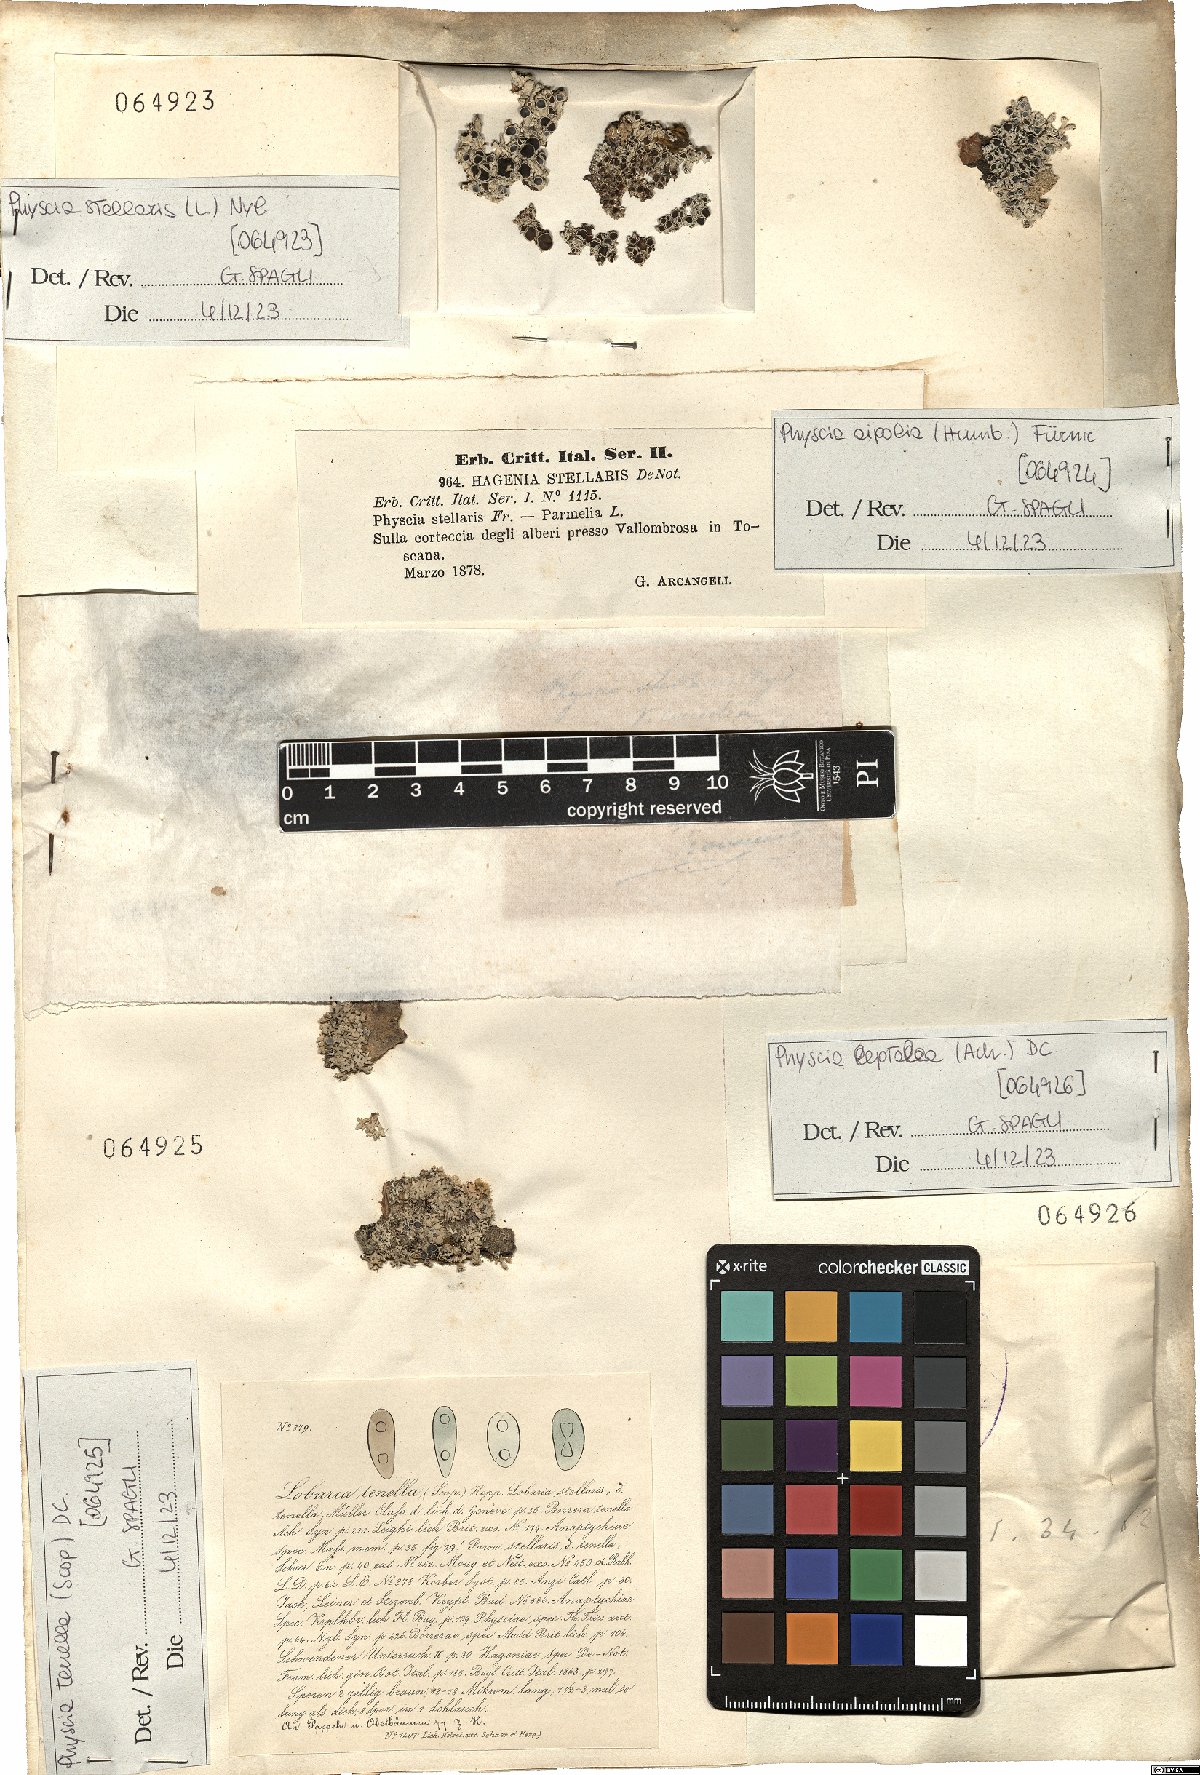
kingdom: Fungi
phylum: Ascomycota
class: Lecanoromycetes
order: Caliciales
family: Physciaceae
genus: Physcia
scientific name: Physcia stellaris
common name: Star rosette lichen
